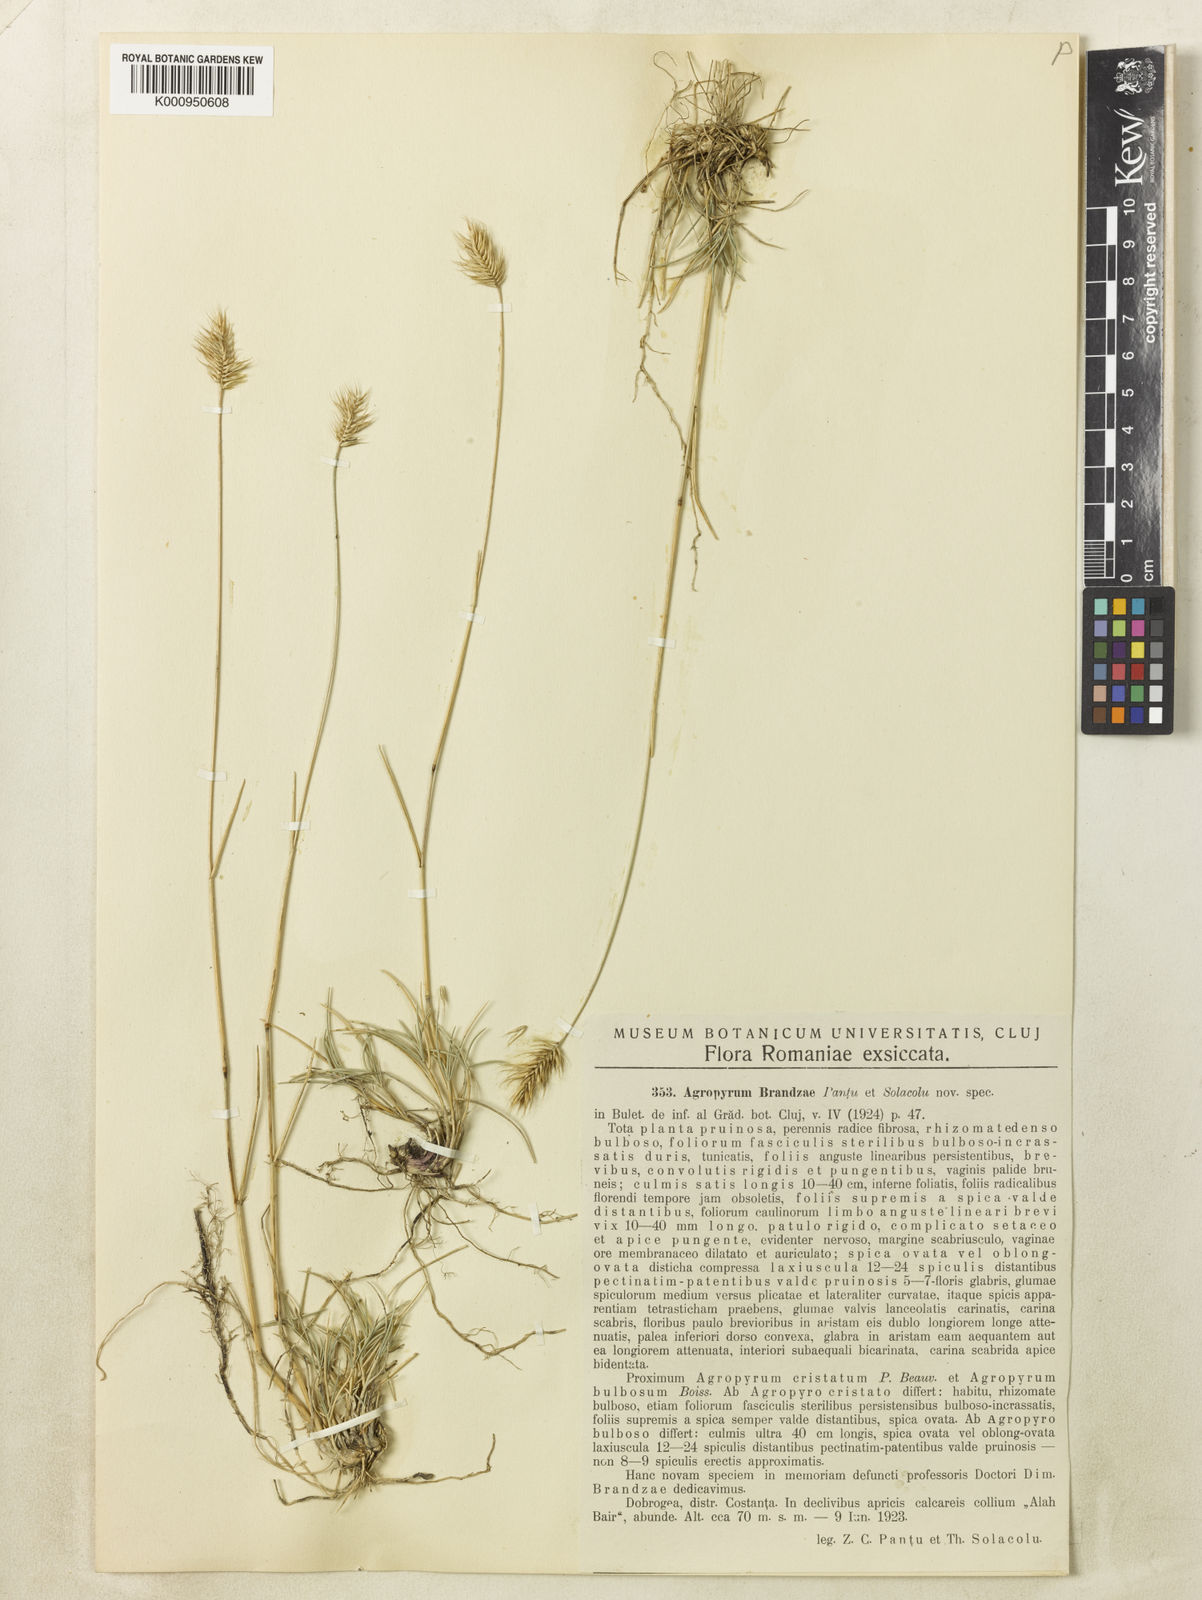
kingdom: Plantae
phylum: Tracheophyta
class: Liliopsida
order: Poales
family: Poaceae
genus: Agropyron
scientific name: Agropyron cristatum
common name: Crested wheatgrass
